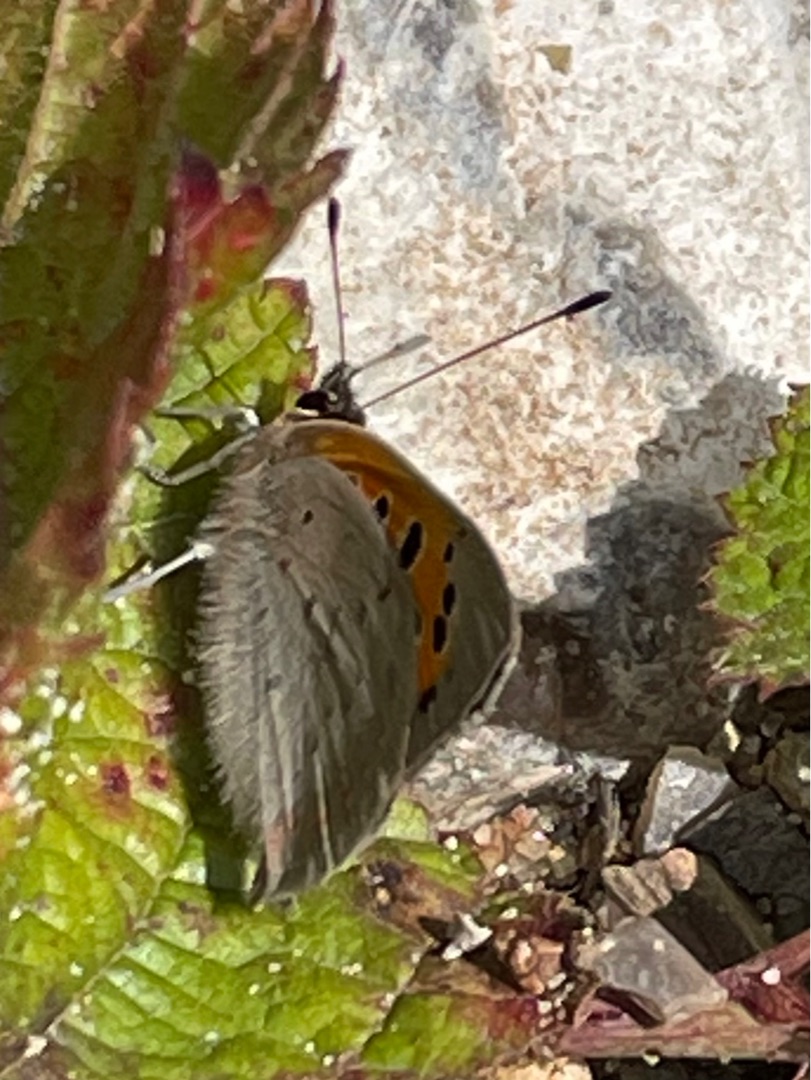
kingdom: Animalia
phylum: Arthropoda
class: Insecta
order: Lepidoptera
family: Lycaenidae
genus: Lycaena
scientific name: Lycaena phlaeas
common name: Lille ildfugl
